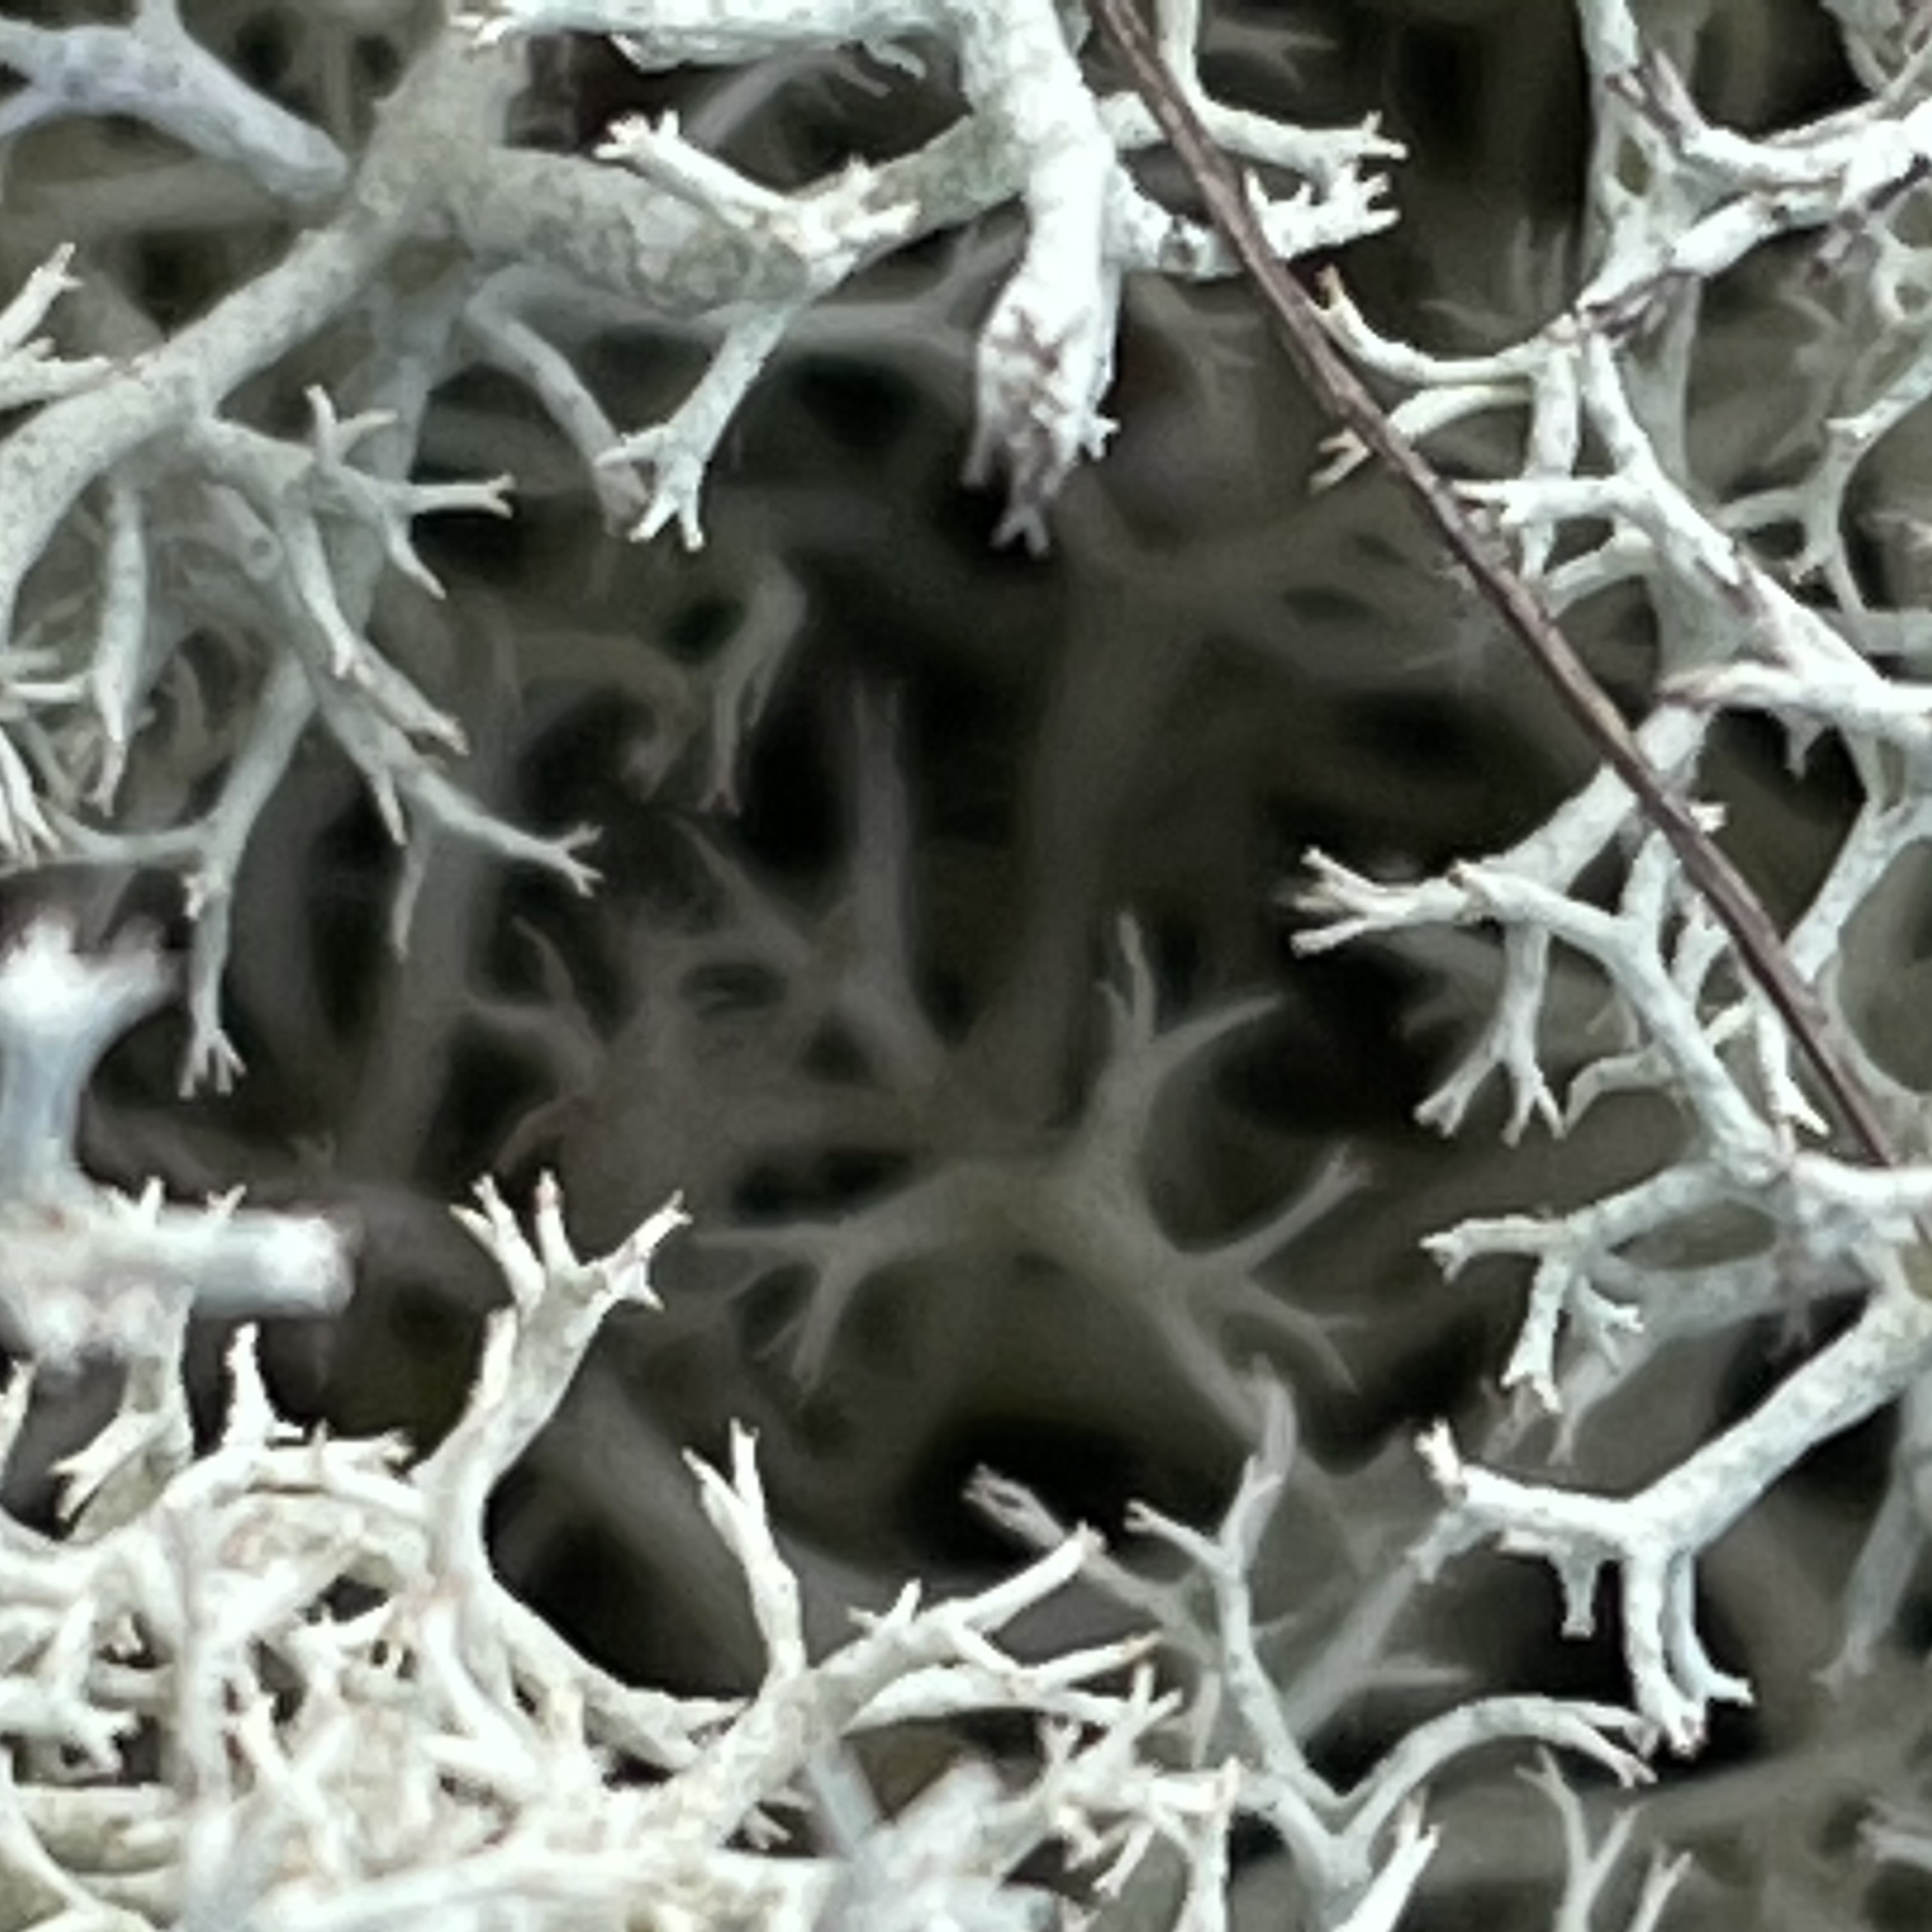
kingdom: Fungi
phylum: Ascomycota
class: Lecanoromycetes
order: Lecanorales
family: Cladoniaceae
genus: Cladonia
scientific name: Cladonia portentosa
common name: hede-rensdyrlav
